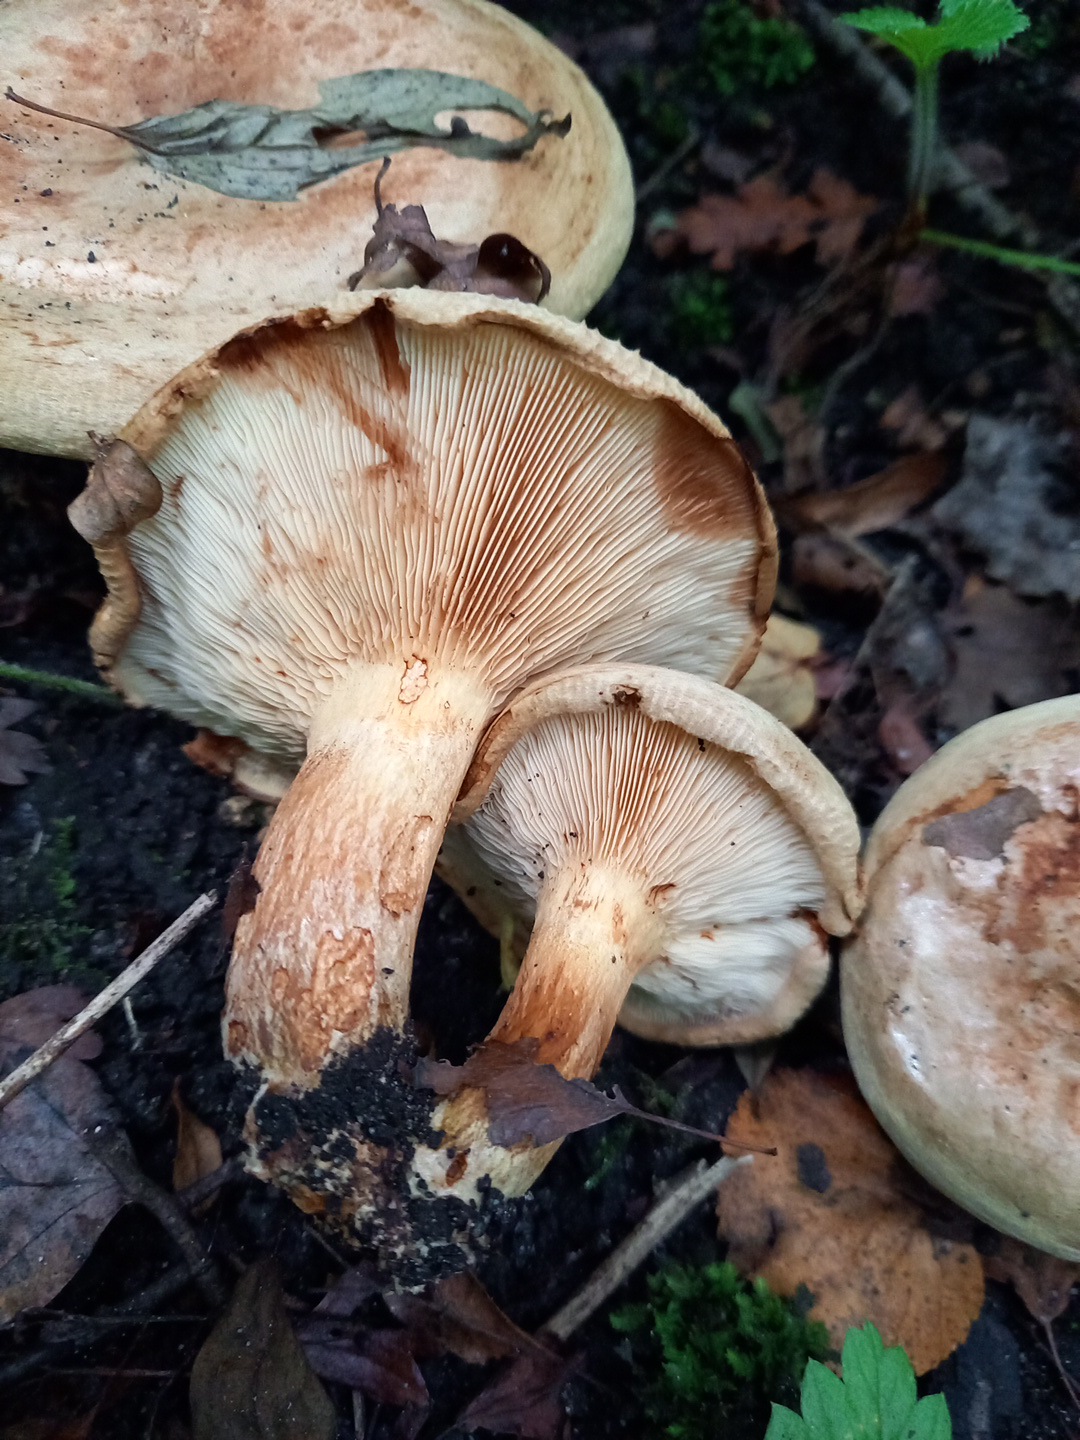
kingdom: Fungi
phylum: Basidiomycota
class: Agaricomycetes
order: Boletales
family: Paxillaceae
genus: Paxillus
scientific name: Paxillus obscurisporus
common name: mahognisporet netbladhat
